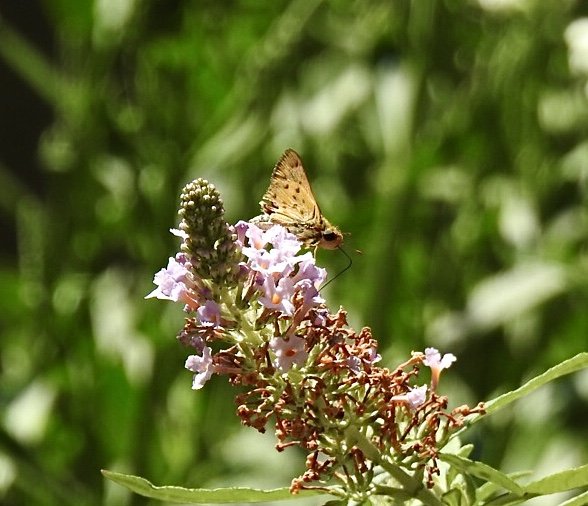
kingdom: Animalia
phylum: Arthropoda
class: Insecta
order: Lepidoptera
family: Hesperiidae
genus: Hylephila
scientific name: Hylephila phyleus
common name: Fiery Skipper
